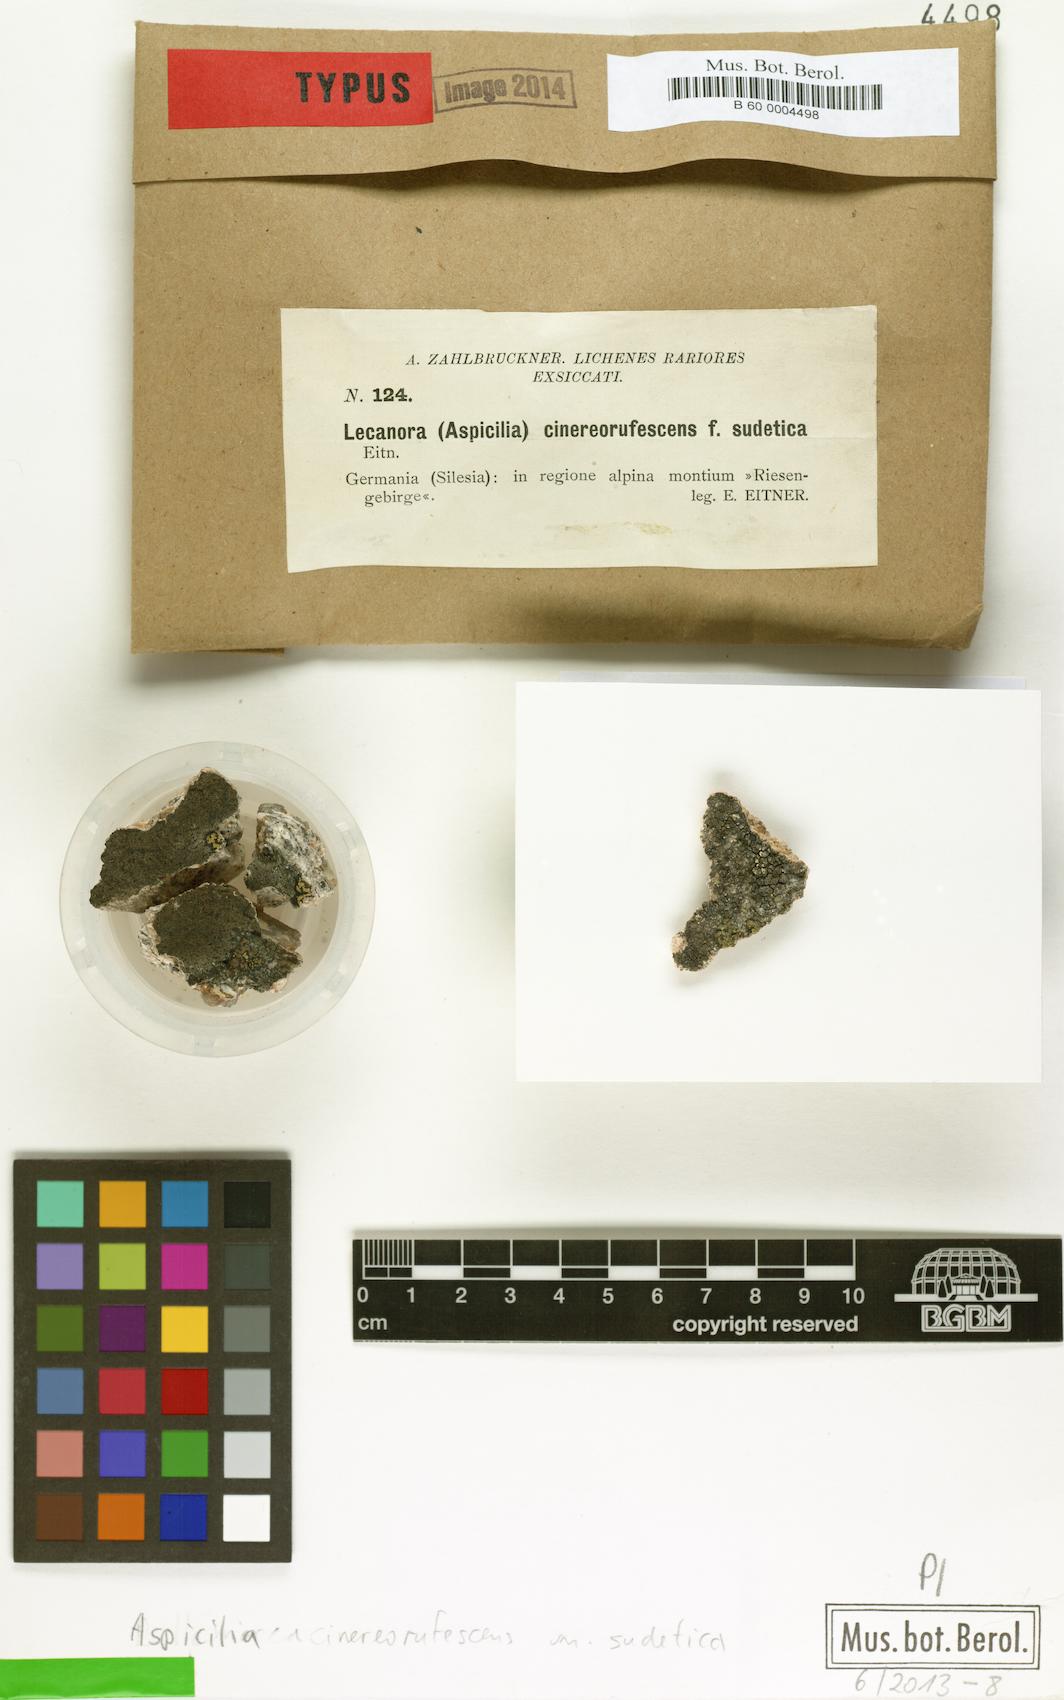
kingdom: Fungi
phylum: Ascomycota
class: Lecanoromycetes
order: Lecideales
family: Lecideaceae
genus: Bellemerea
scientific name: Bellemerea cinereorufescens
